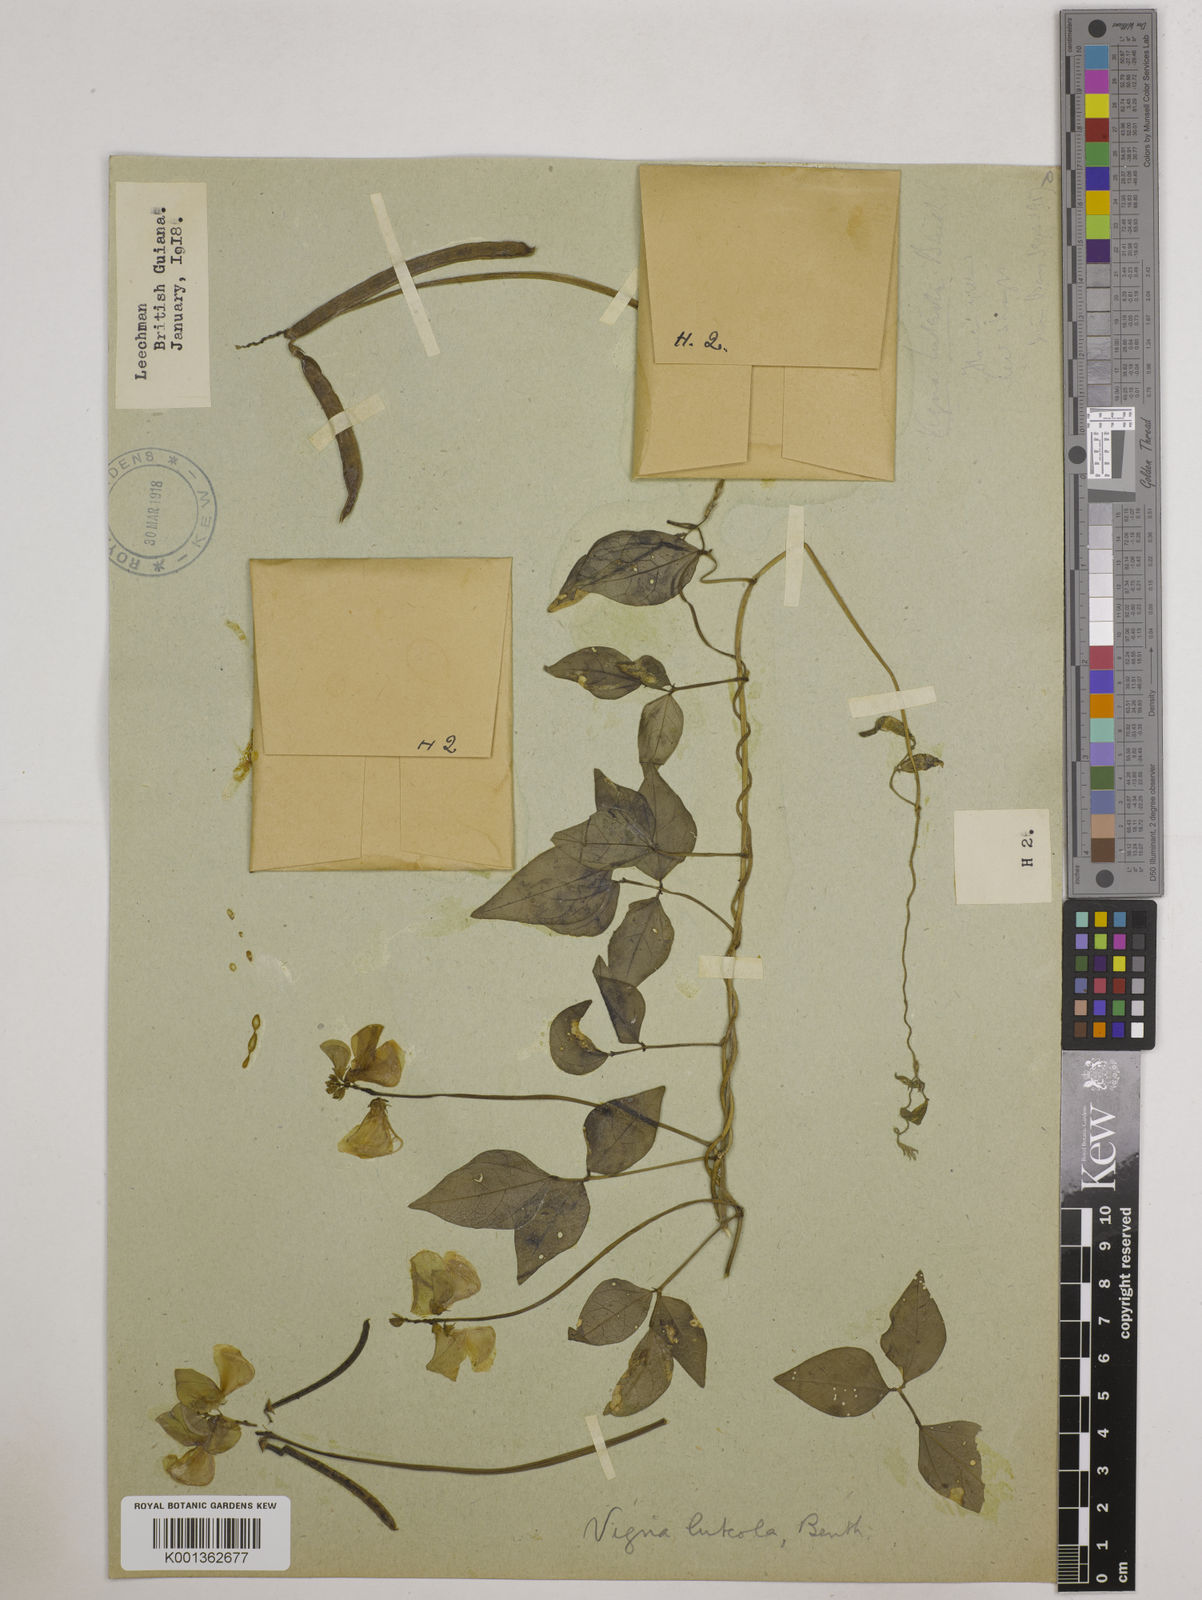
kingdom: Plantae
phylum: Tracheophyta
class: Magnoliopsida
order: Fabales
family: Fabaceae
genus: Vigna
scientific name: Vigna luteola
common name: Hairypod cowpea
